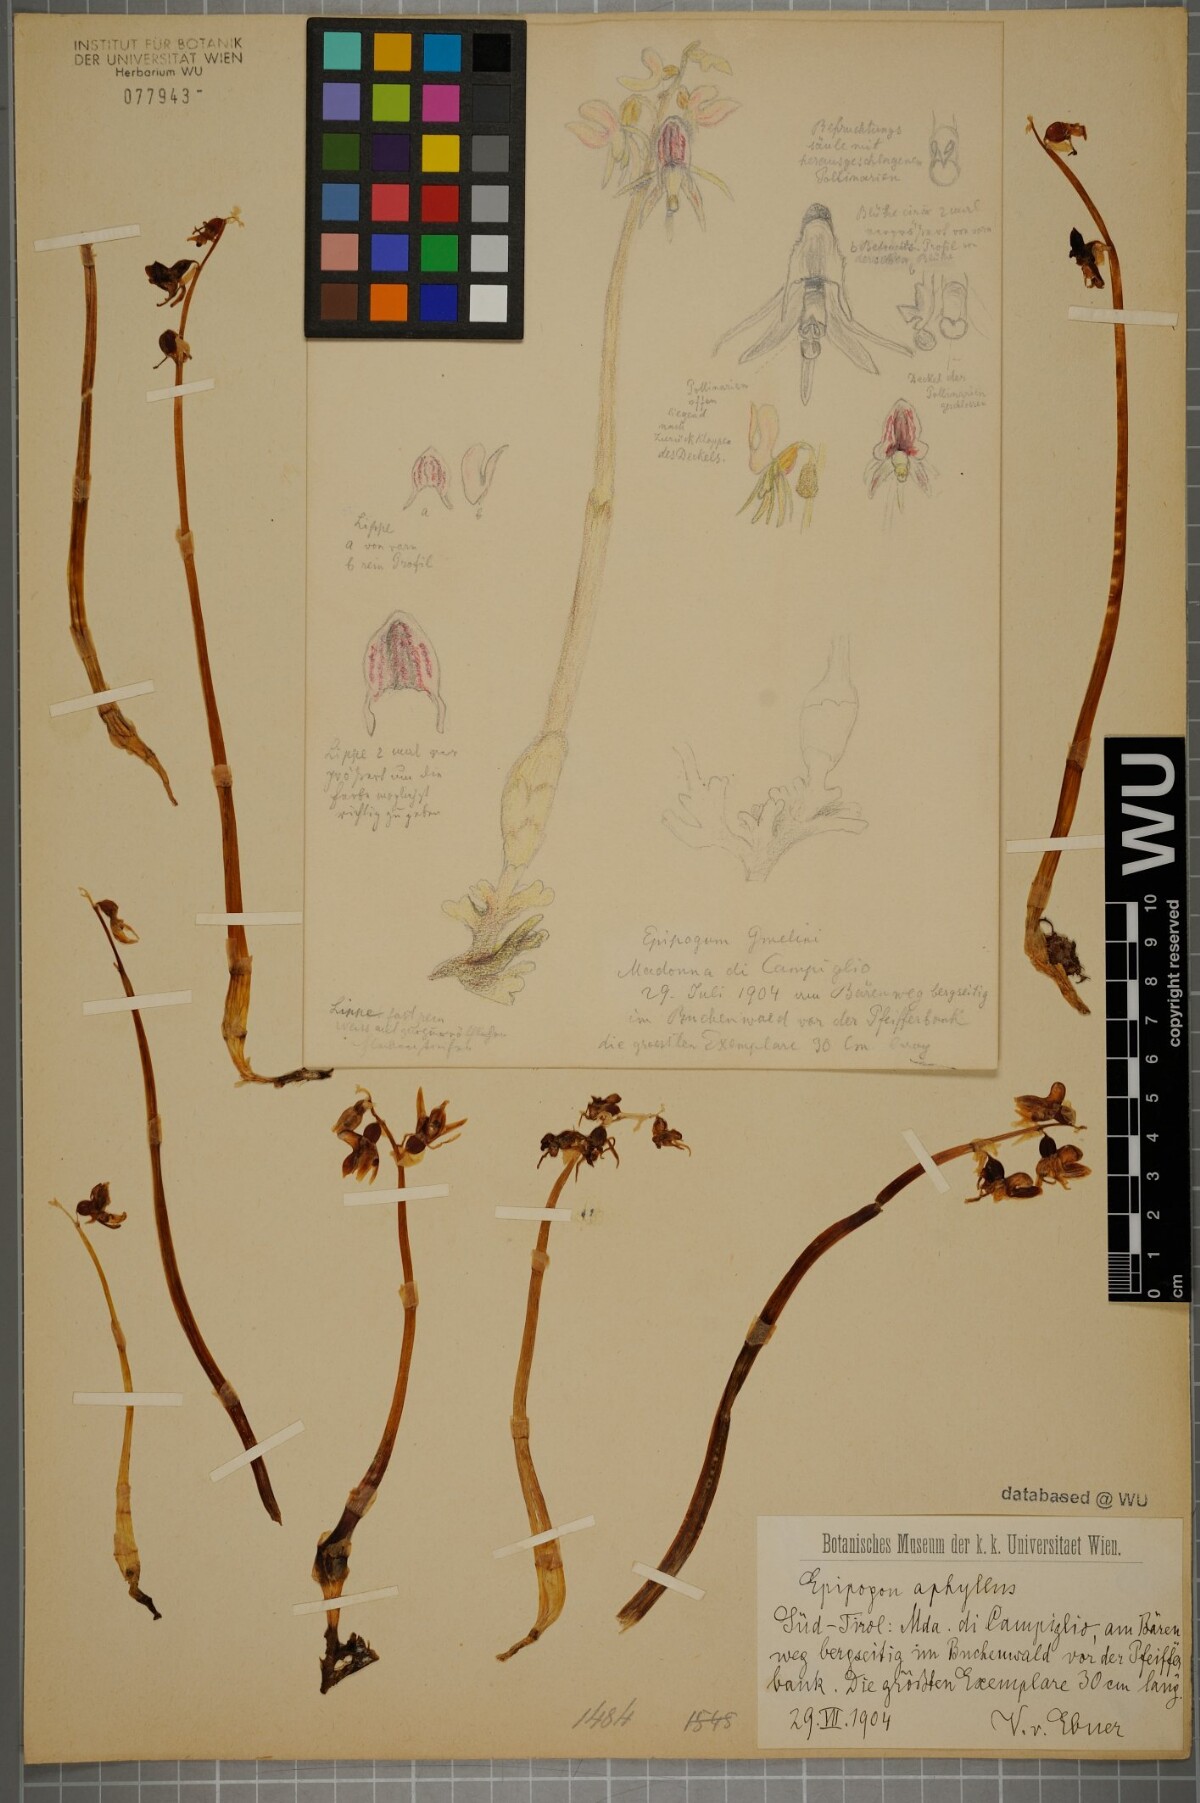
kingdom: Plantae
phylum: Tracheophyta
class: Liliopsida
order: Asparagales
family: Orchidaceae
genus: Epipogium
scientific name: Epipogium aphyllum
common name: Ghost orchid
